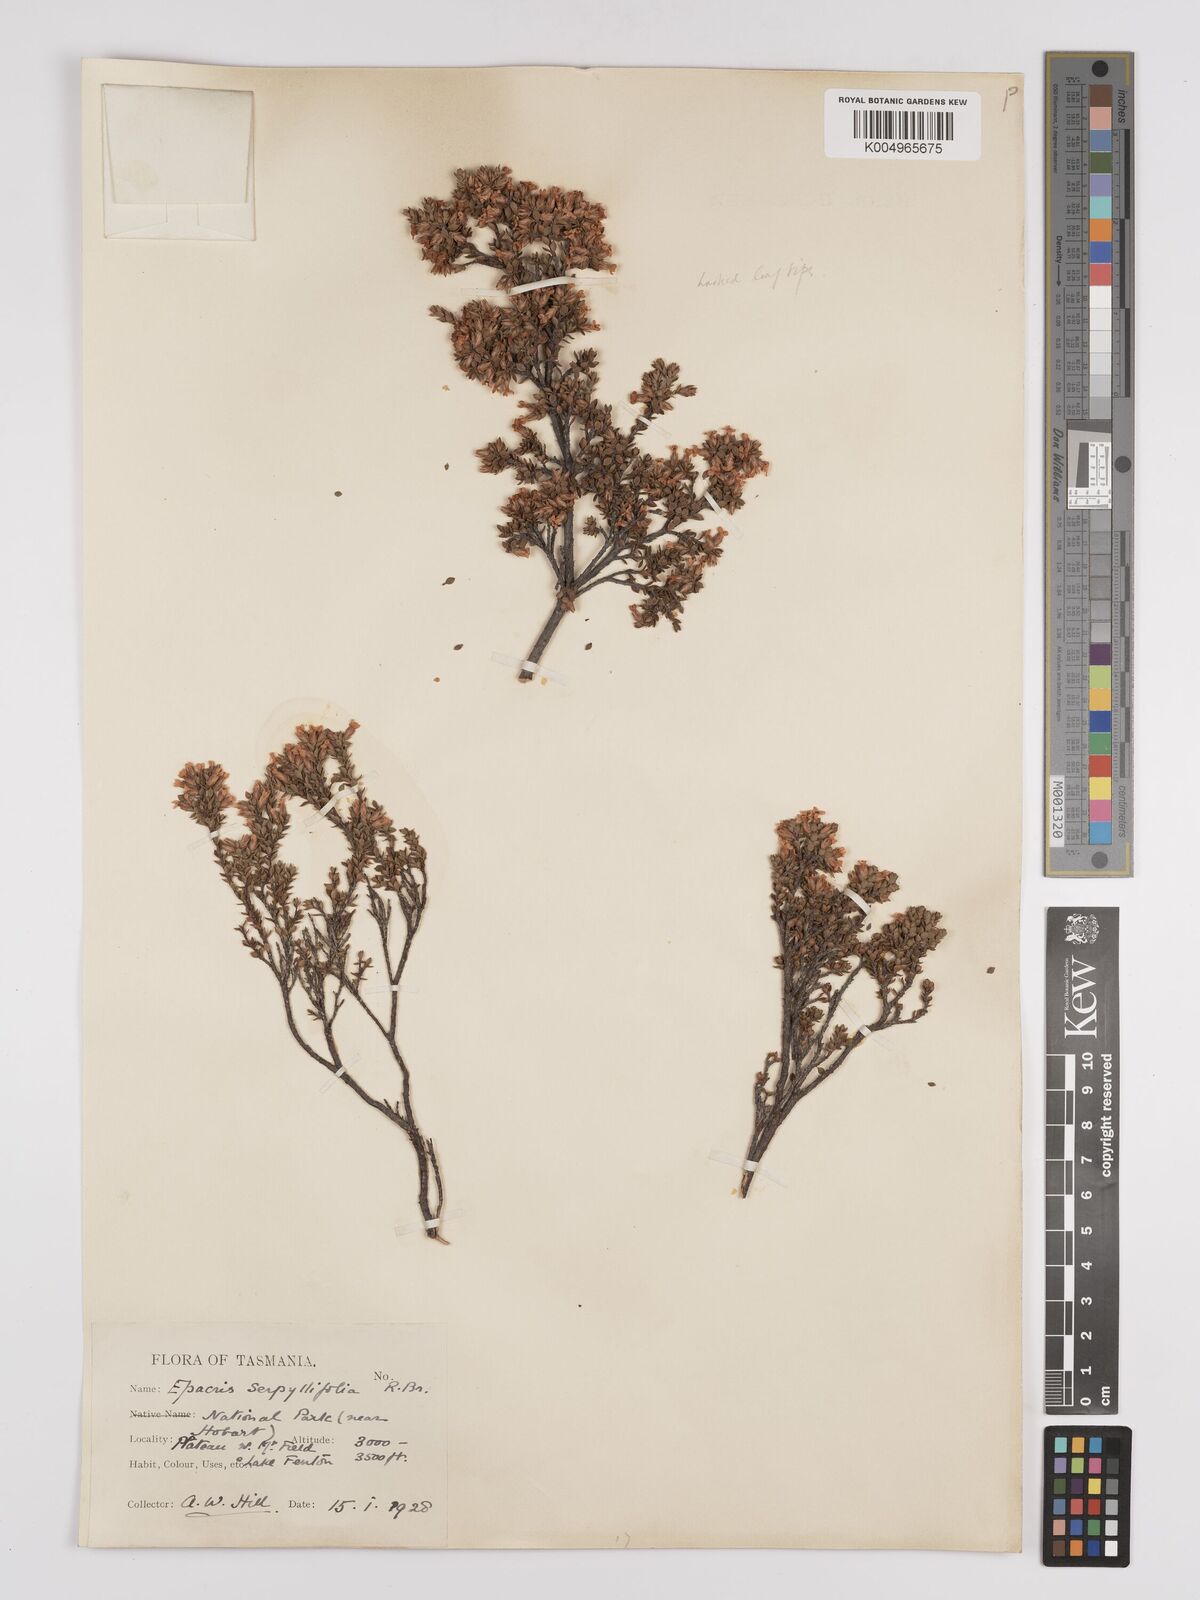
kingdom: Plantae
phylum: Tracheophyta
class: Magnoliopsida
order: Ericales
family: Ericaceae
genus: Epacris
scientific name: Epacris serpyllifolia
